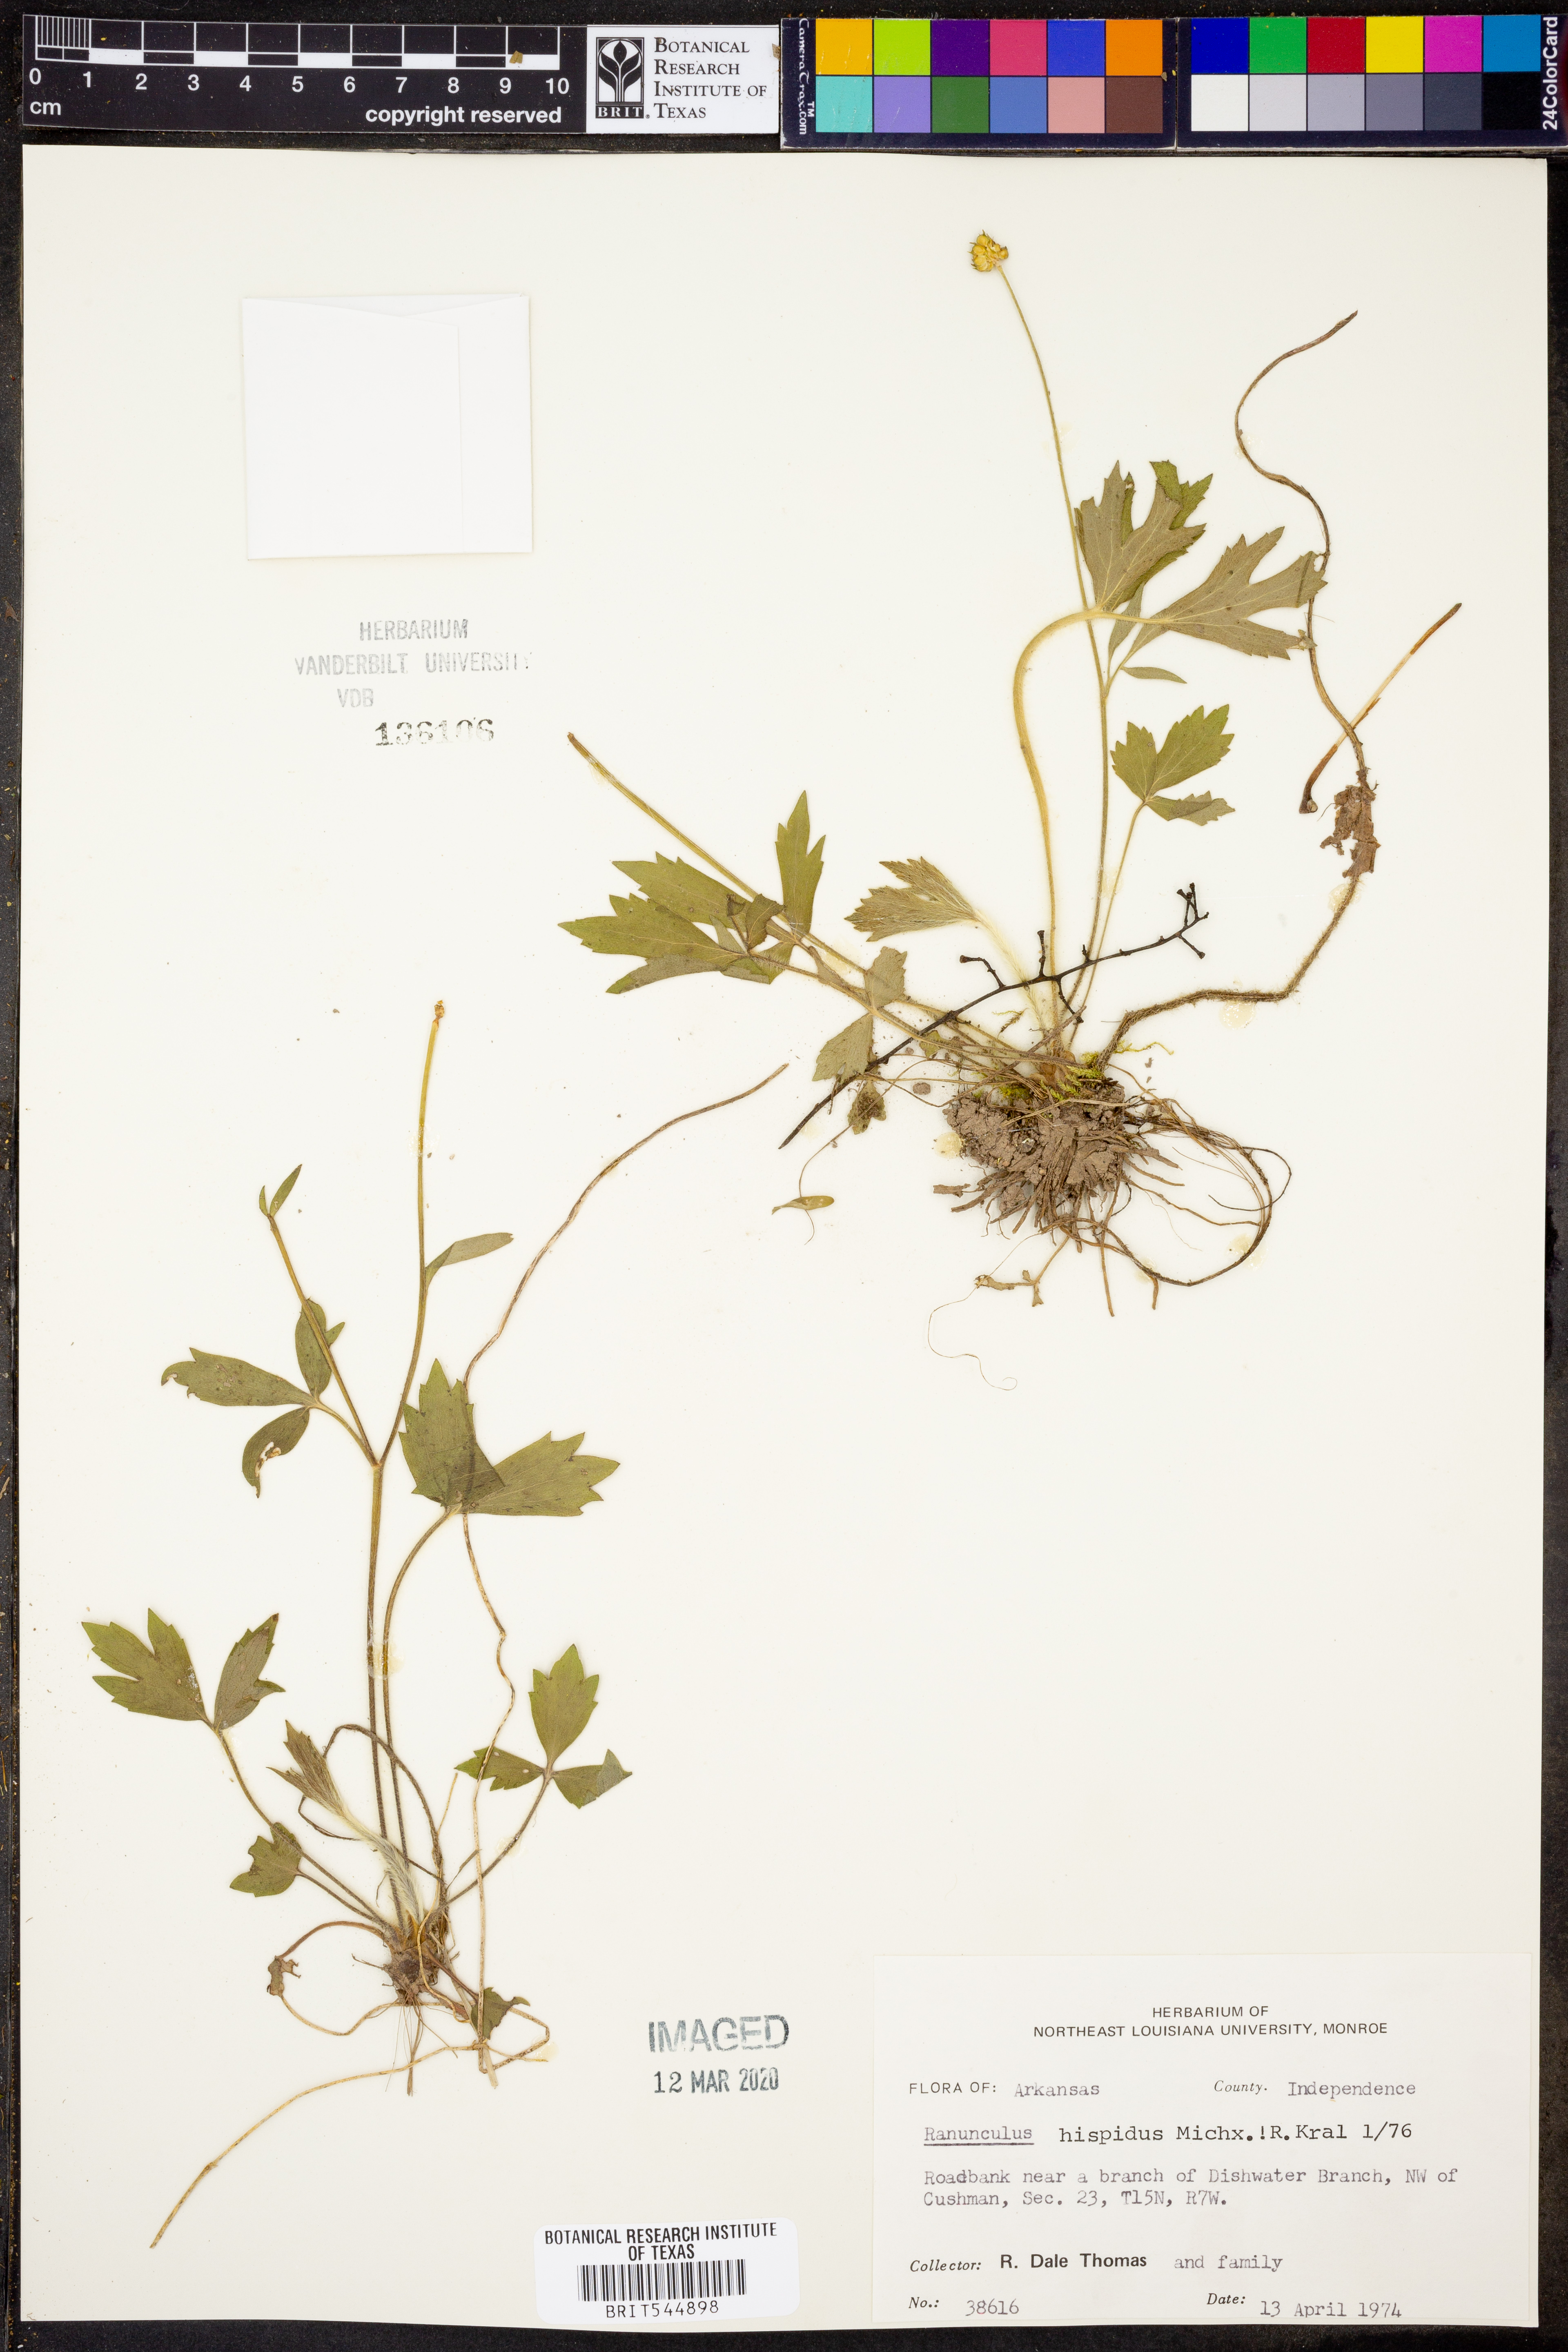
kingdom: Plantae
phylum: Tracheophyta
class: Magnoliopsida
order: Ranunculales
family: Ranunculaceae
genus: Ranunculus
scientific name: Ranunculus hispidus
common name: Bristly buttercup
